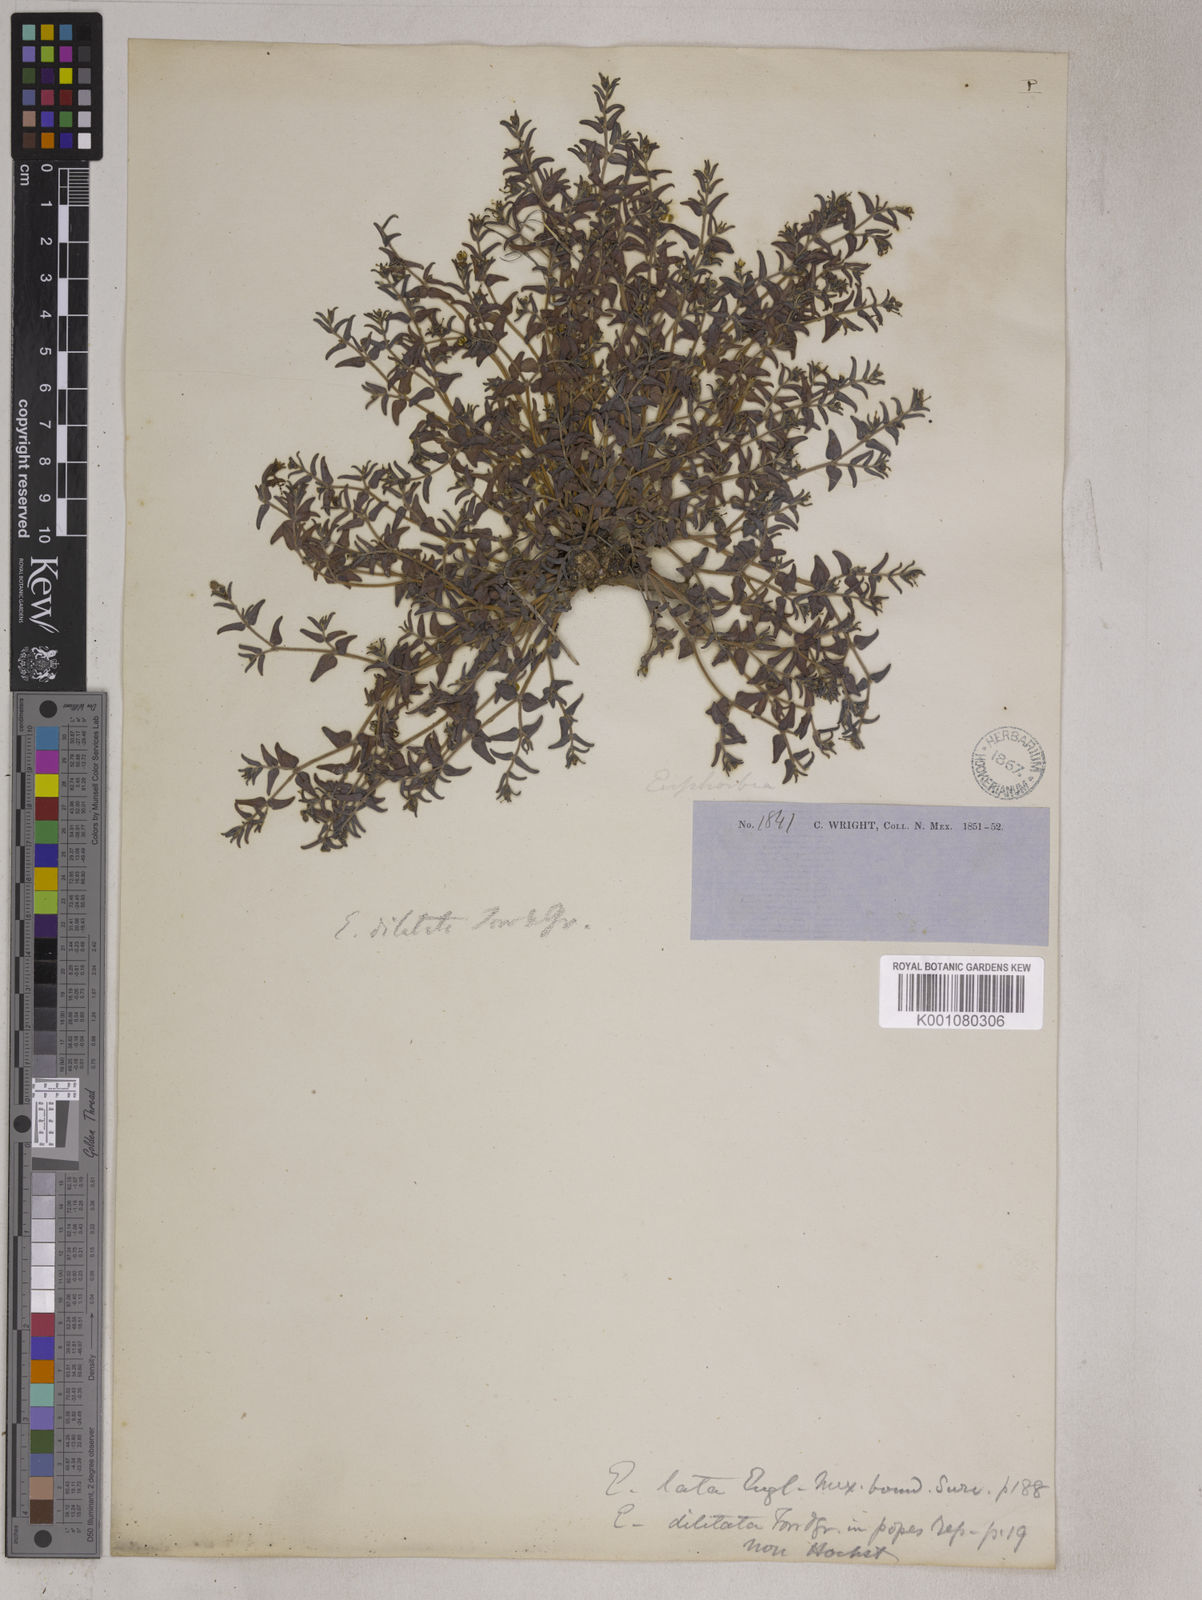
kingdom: Plantae
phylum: Tracheophyta
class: Magnoliopsida
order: Malpighiales
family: Euphorbiaceae
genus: Euphorbia
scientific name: Euphorbia lata
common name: Hoary euphorbia
